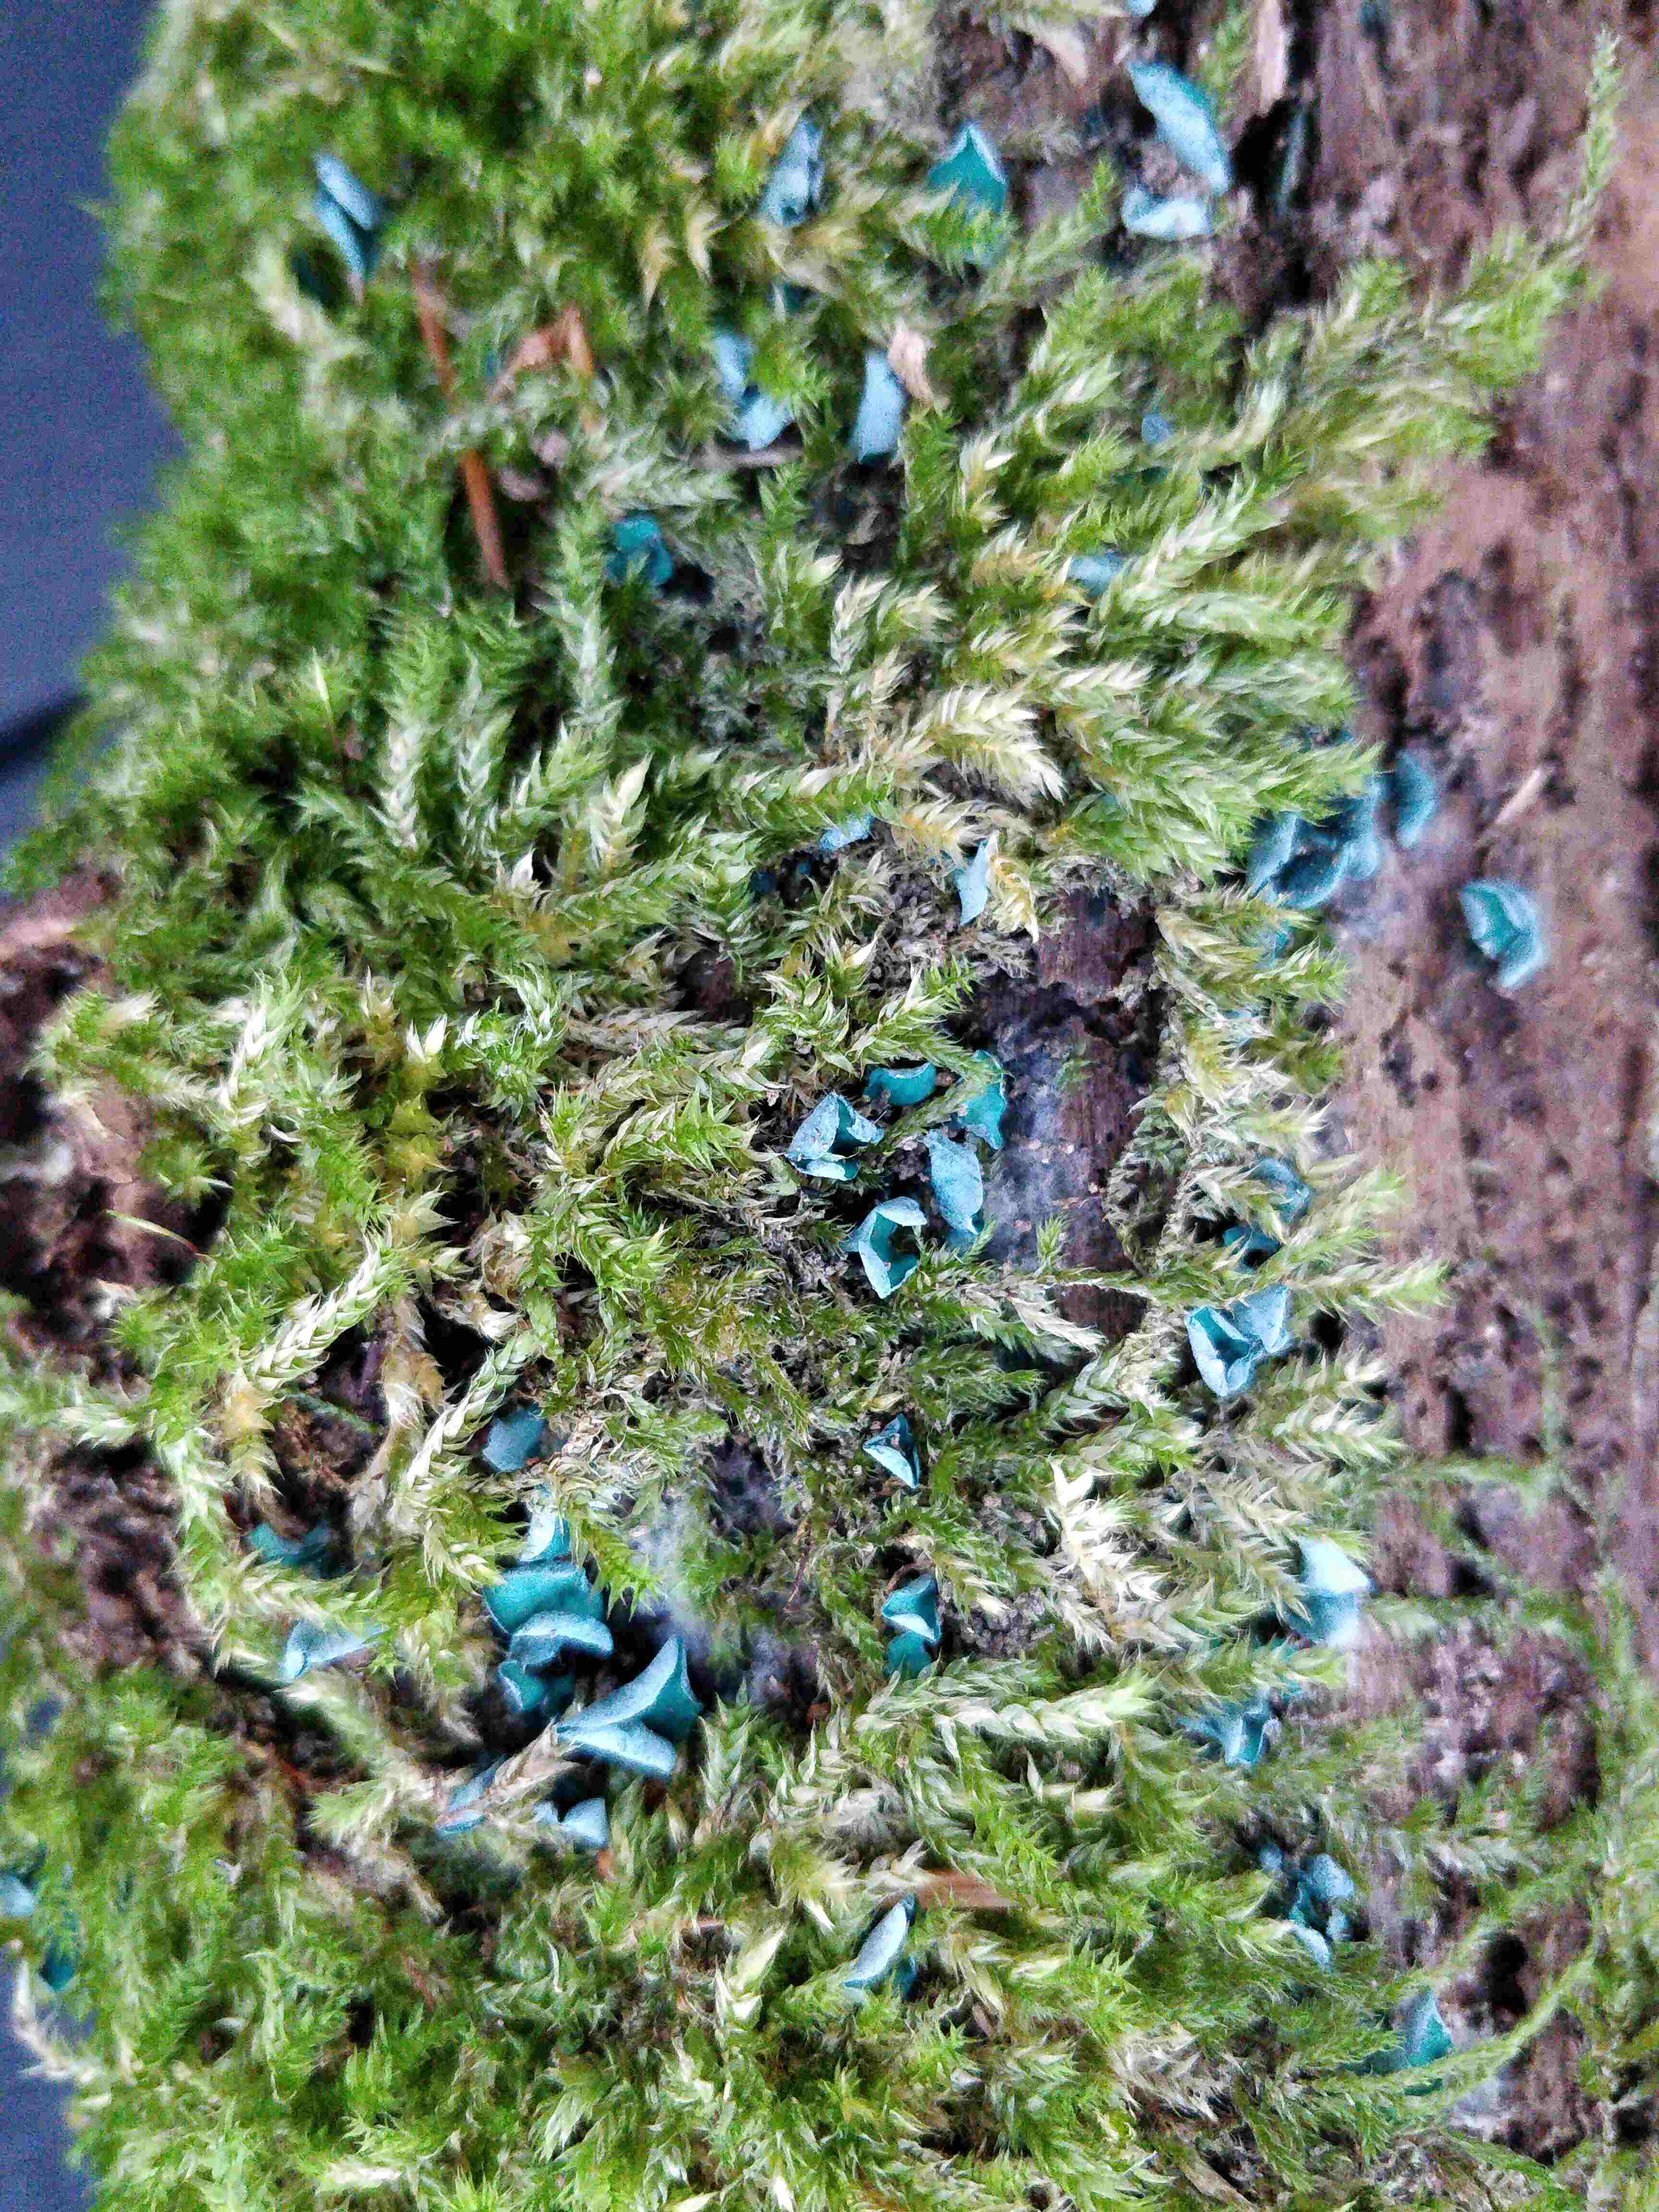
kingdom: Fungi
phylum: Ascomycota
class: Leotiomycetes
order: Helotiales
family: Chlorociboriaceae
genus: Chlorociboria
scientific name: Chlorociboria aeruginascens
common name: almindelig grønskive
